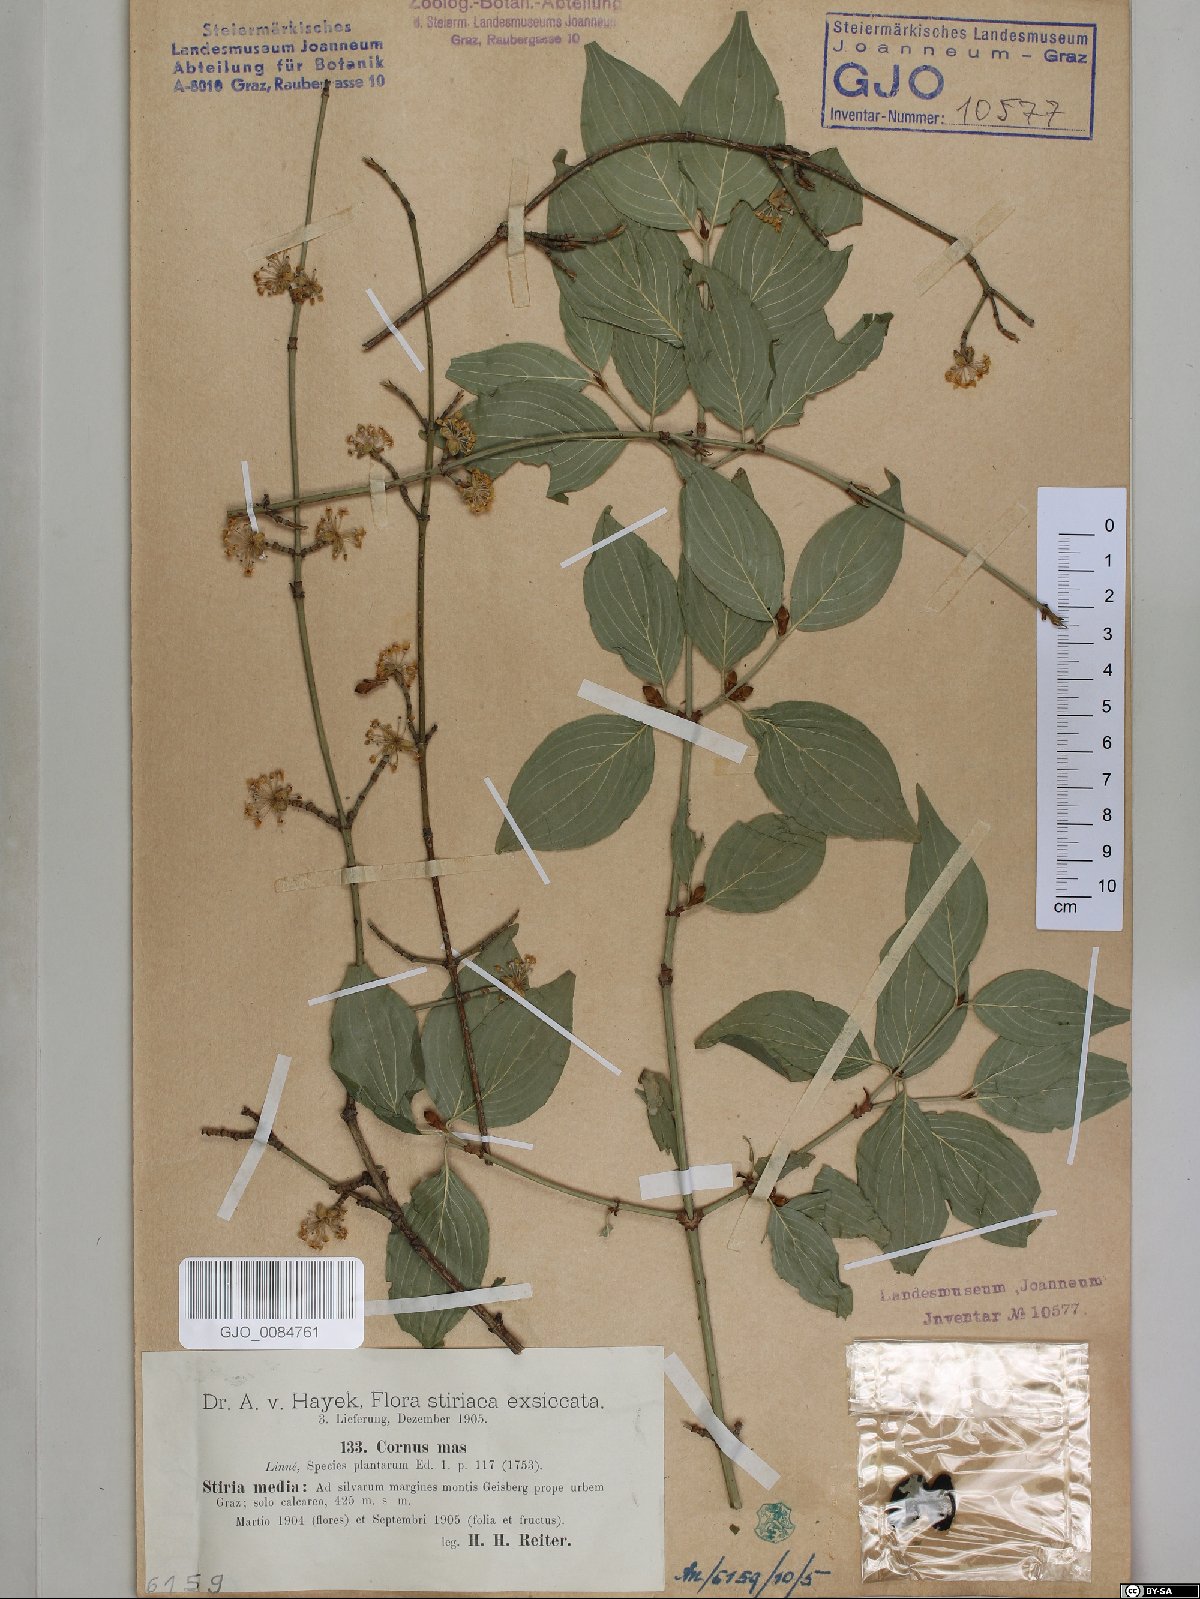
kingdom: Plantae
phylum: Tracheophyta
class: Magnoliopsida
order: Cornales
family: Cornaceae
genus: Cornus
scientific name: Cornus mas
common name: Cornelian-cherry
